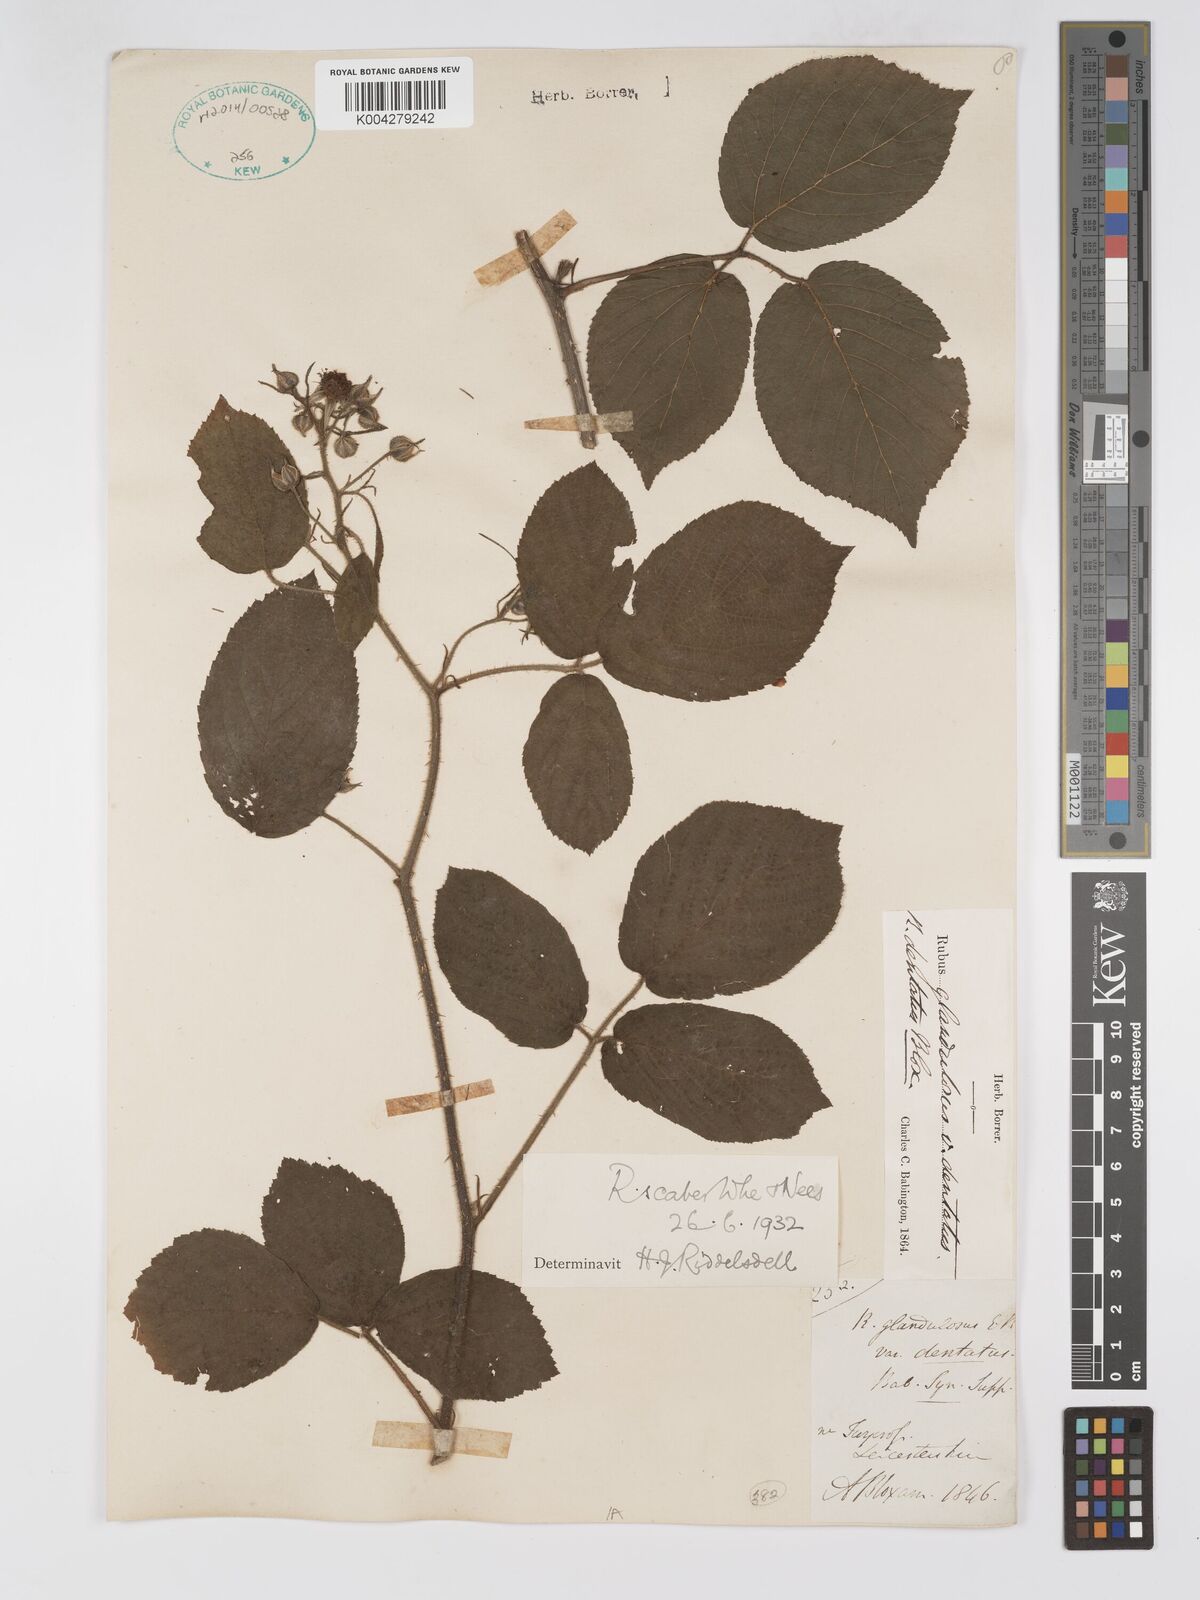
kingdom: Plantae
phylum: Tracheophyta
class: Magnoliopsida
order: Rosales
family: Rosaceae
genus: Rubus
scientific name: Rubus scaber
